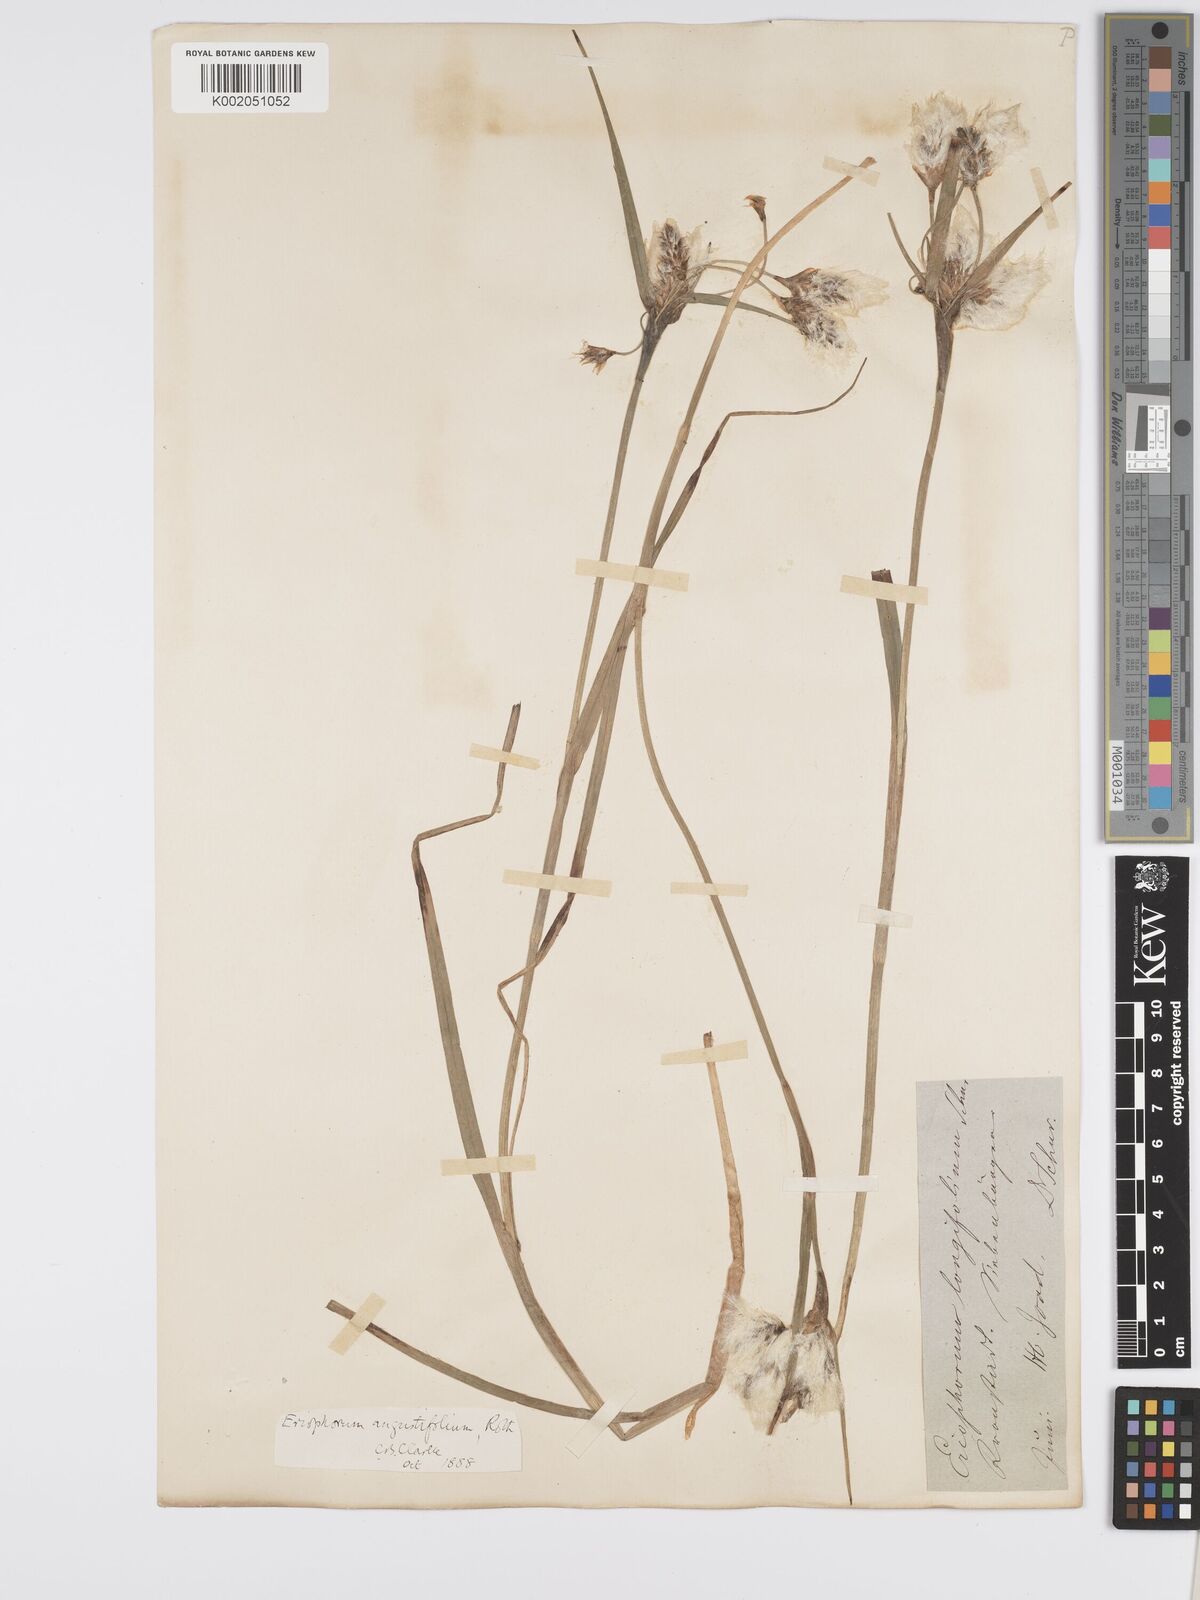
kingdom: Plantae
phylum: Tracheophyta
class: Liliopsida
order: Poales
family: Cyperaceae
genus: Eriophorum
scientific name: Eriophorum angustifolium
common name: Common cottongrass
